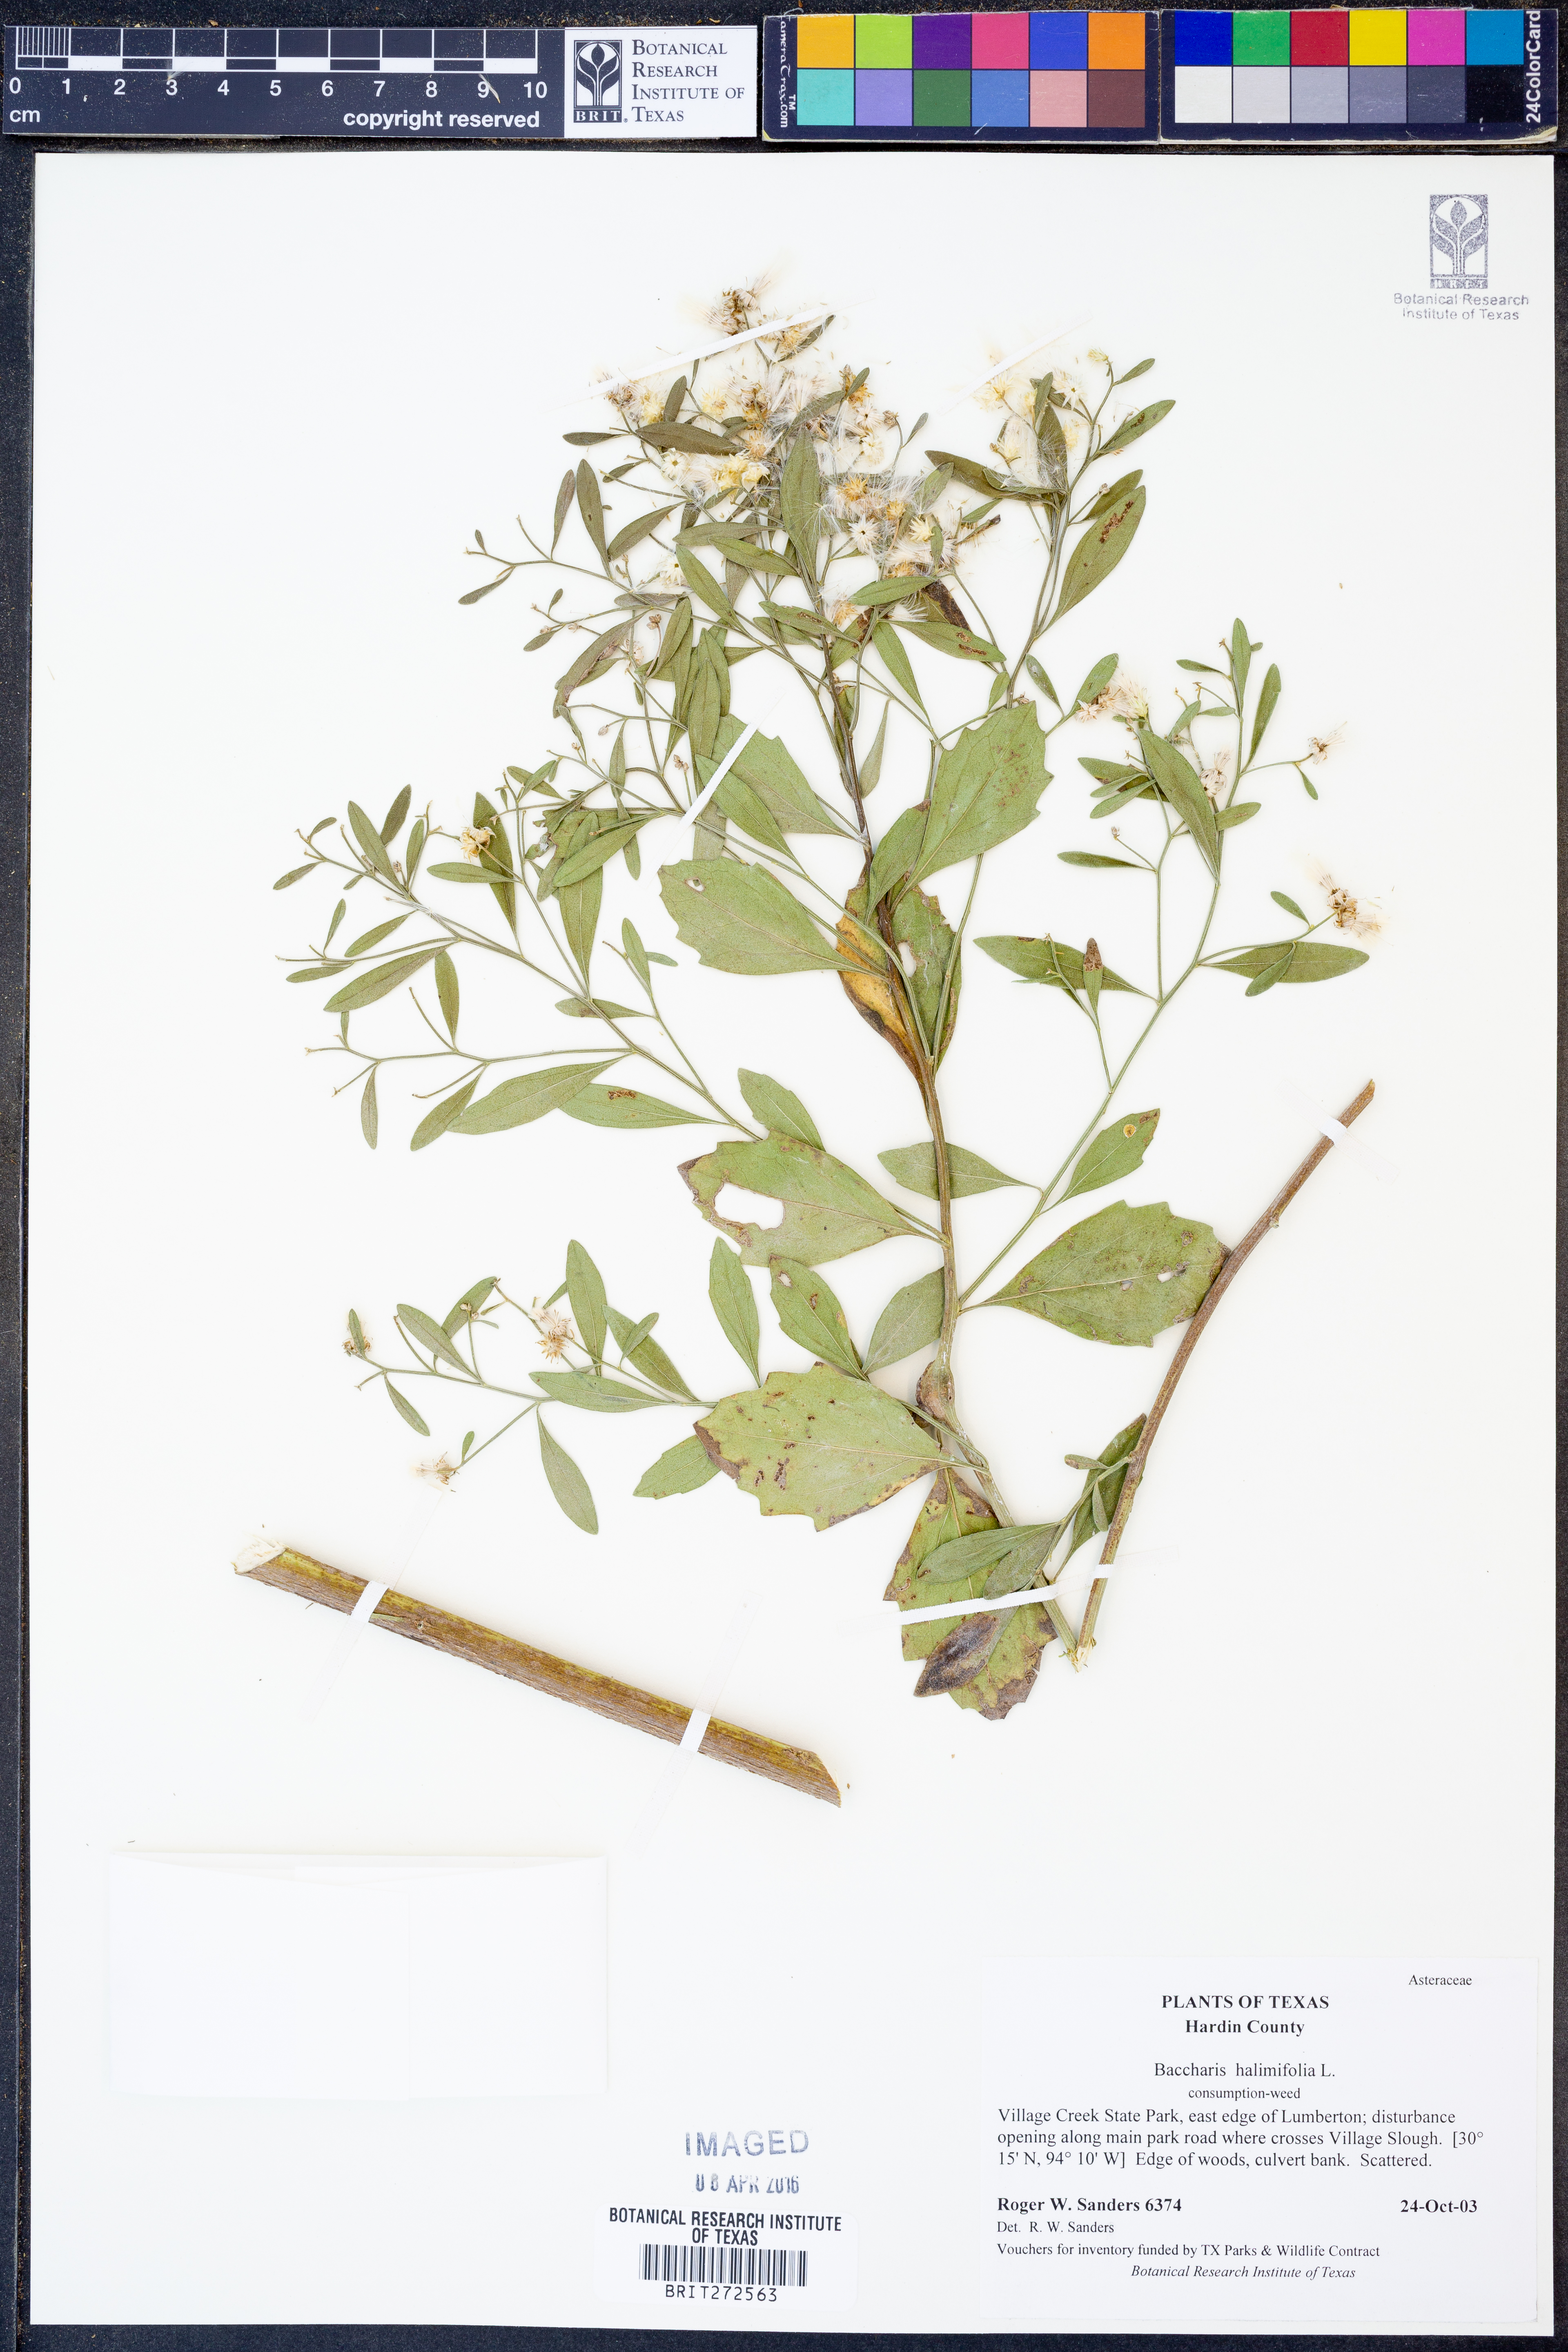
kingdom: Plantae
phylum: Tracheophyta
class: Magnoliopsida
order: Asterales
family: Asteraceae
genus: Nidorella
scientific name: Nidorella ivifolia
